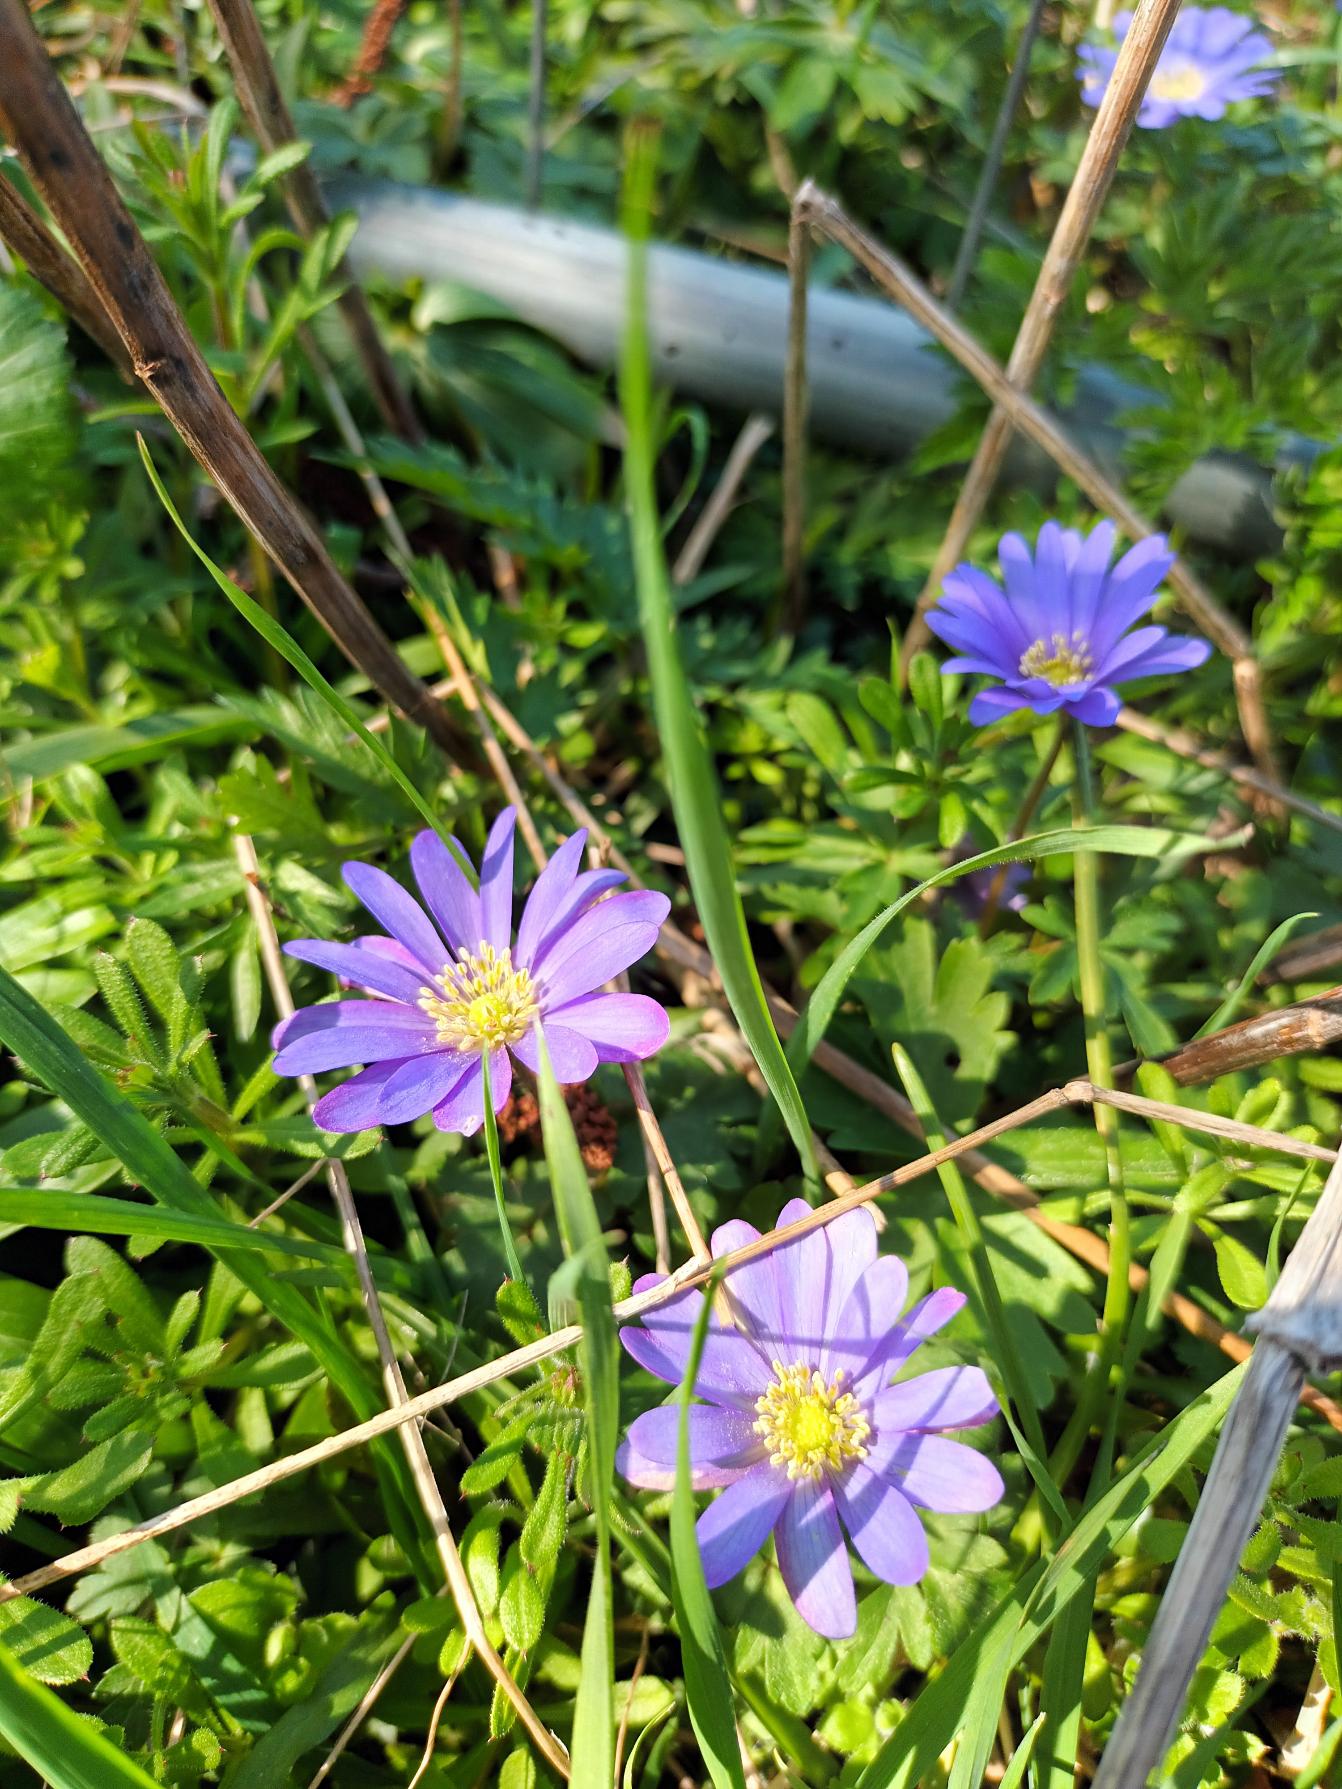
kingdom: Plantae
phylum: Tracheophyta
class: Magnoliopsida
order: Ranunculales
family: Ranunculaceae
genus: Anemone
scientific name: Anemone blanda
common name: Balkan-anemone
